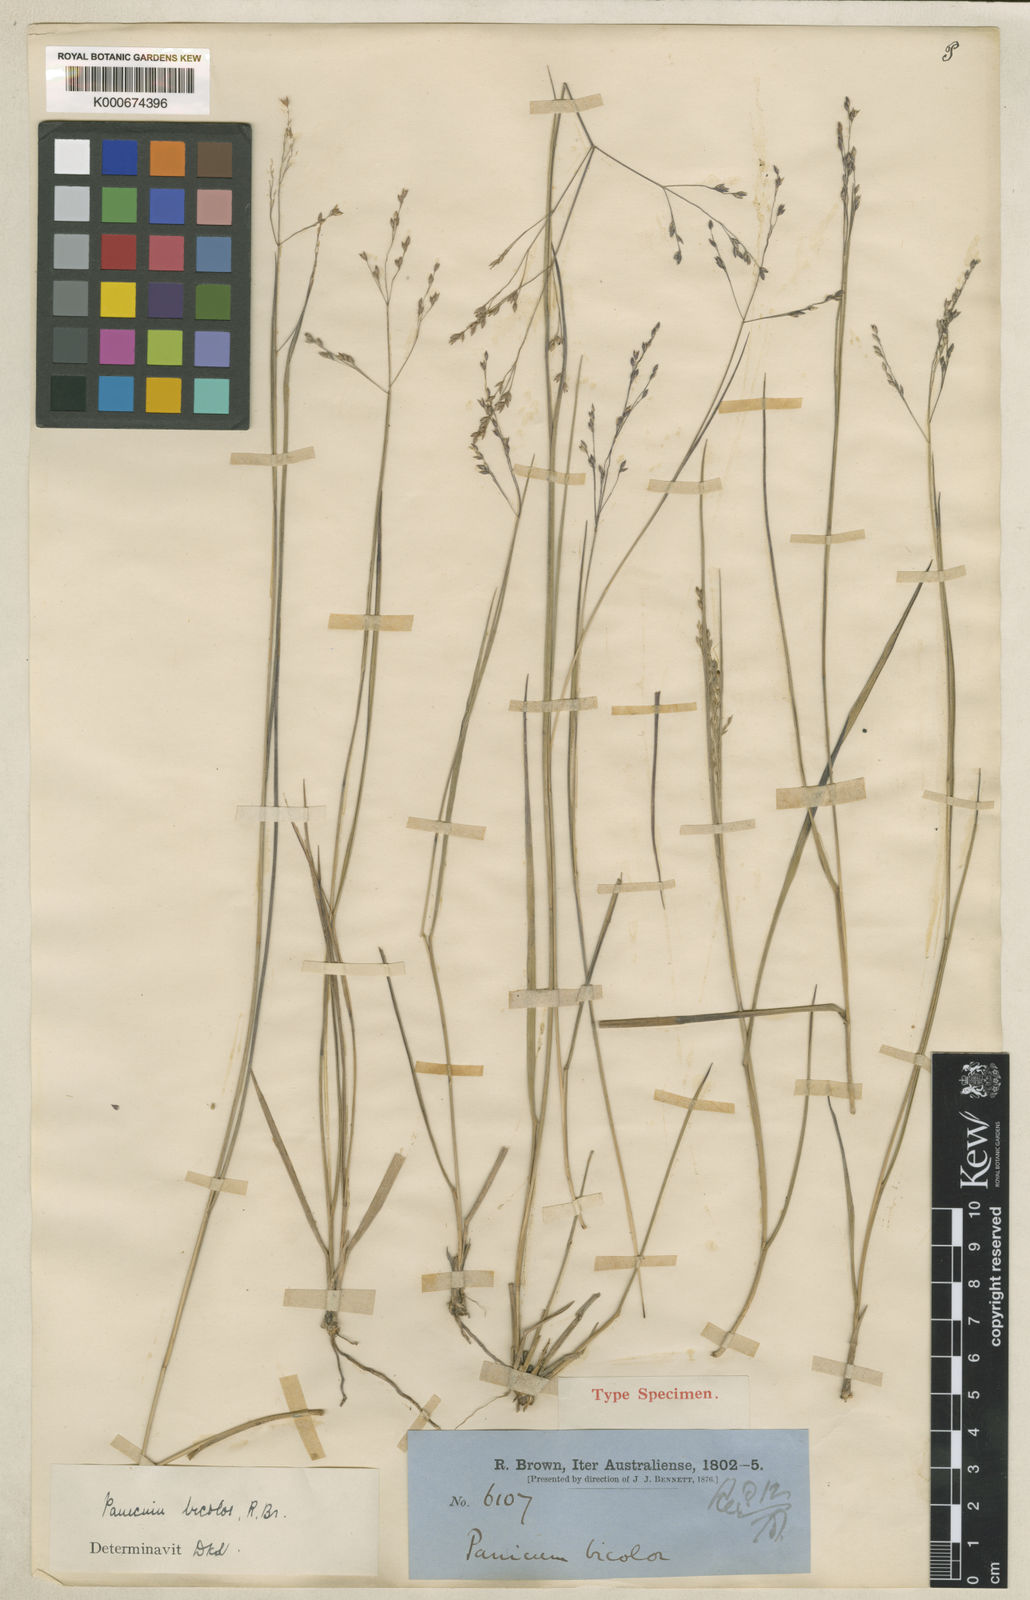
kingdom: Plantae
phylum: Tracheophyta
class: Liliopsida
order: Poales
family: Poaceae
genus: Panicum
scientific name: Panicum simile
